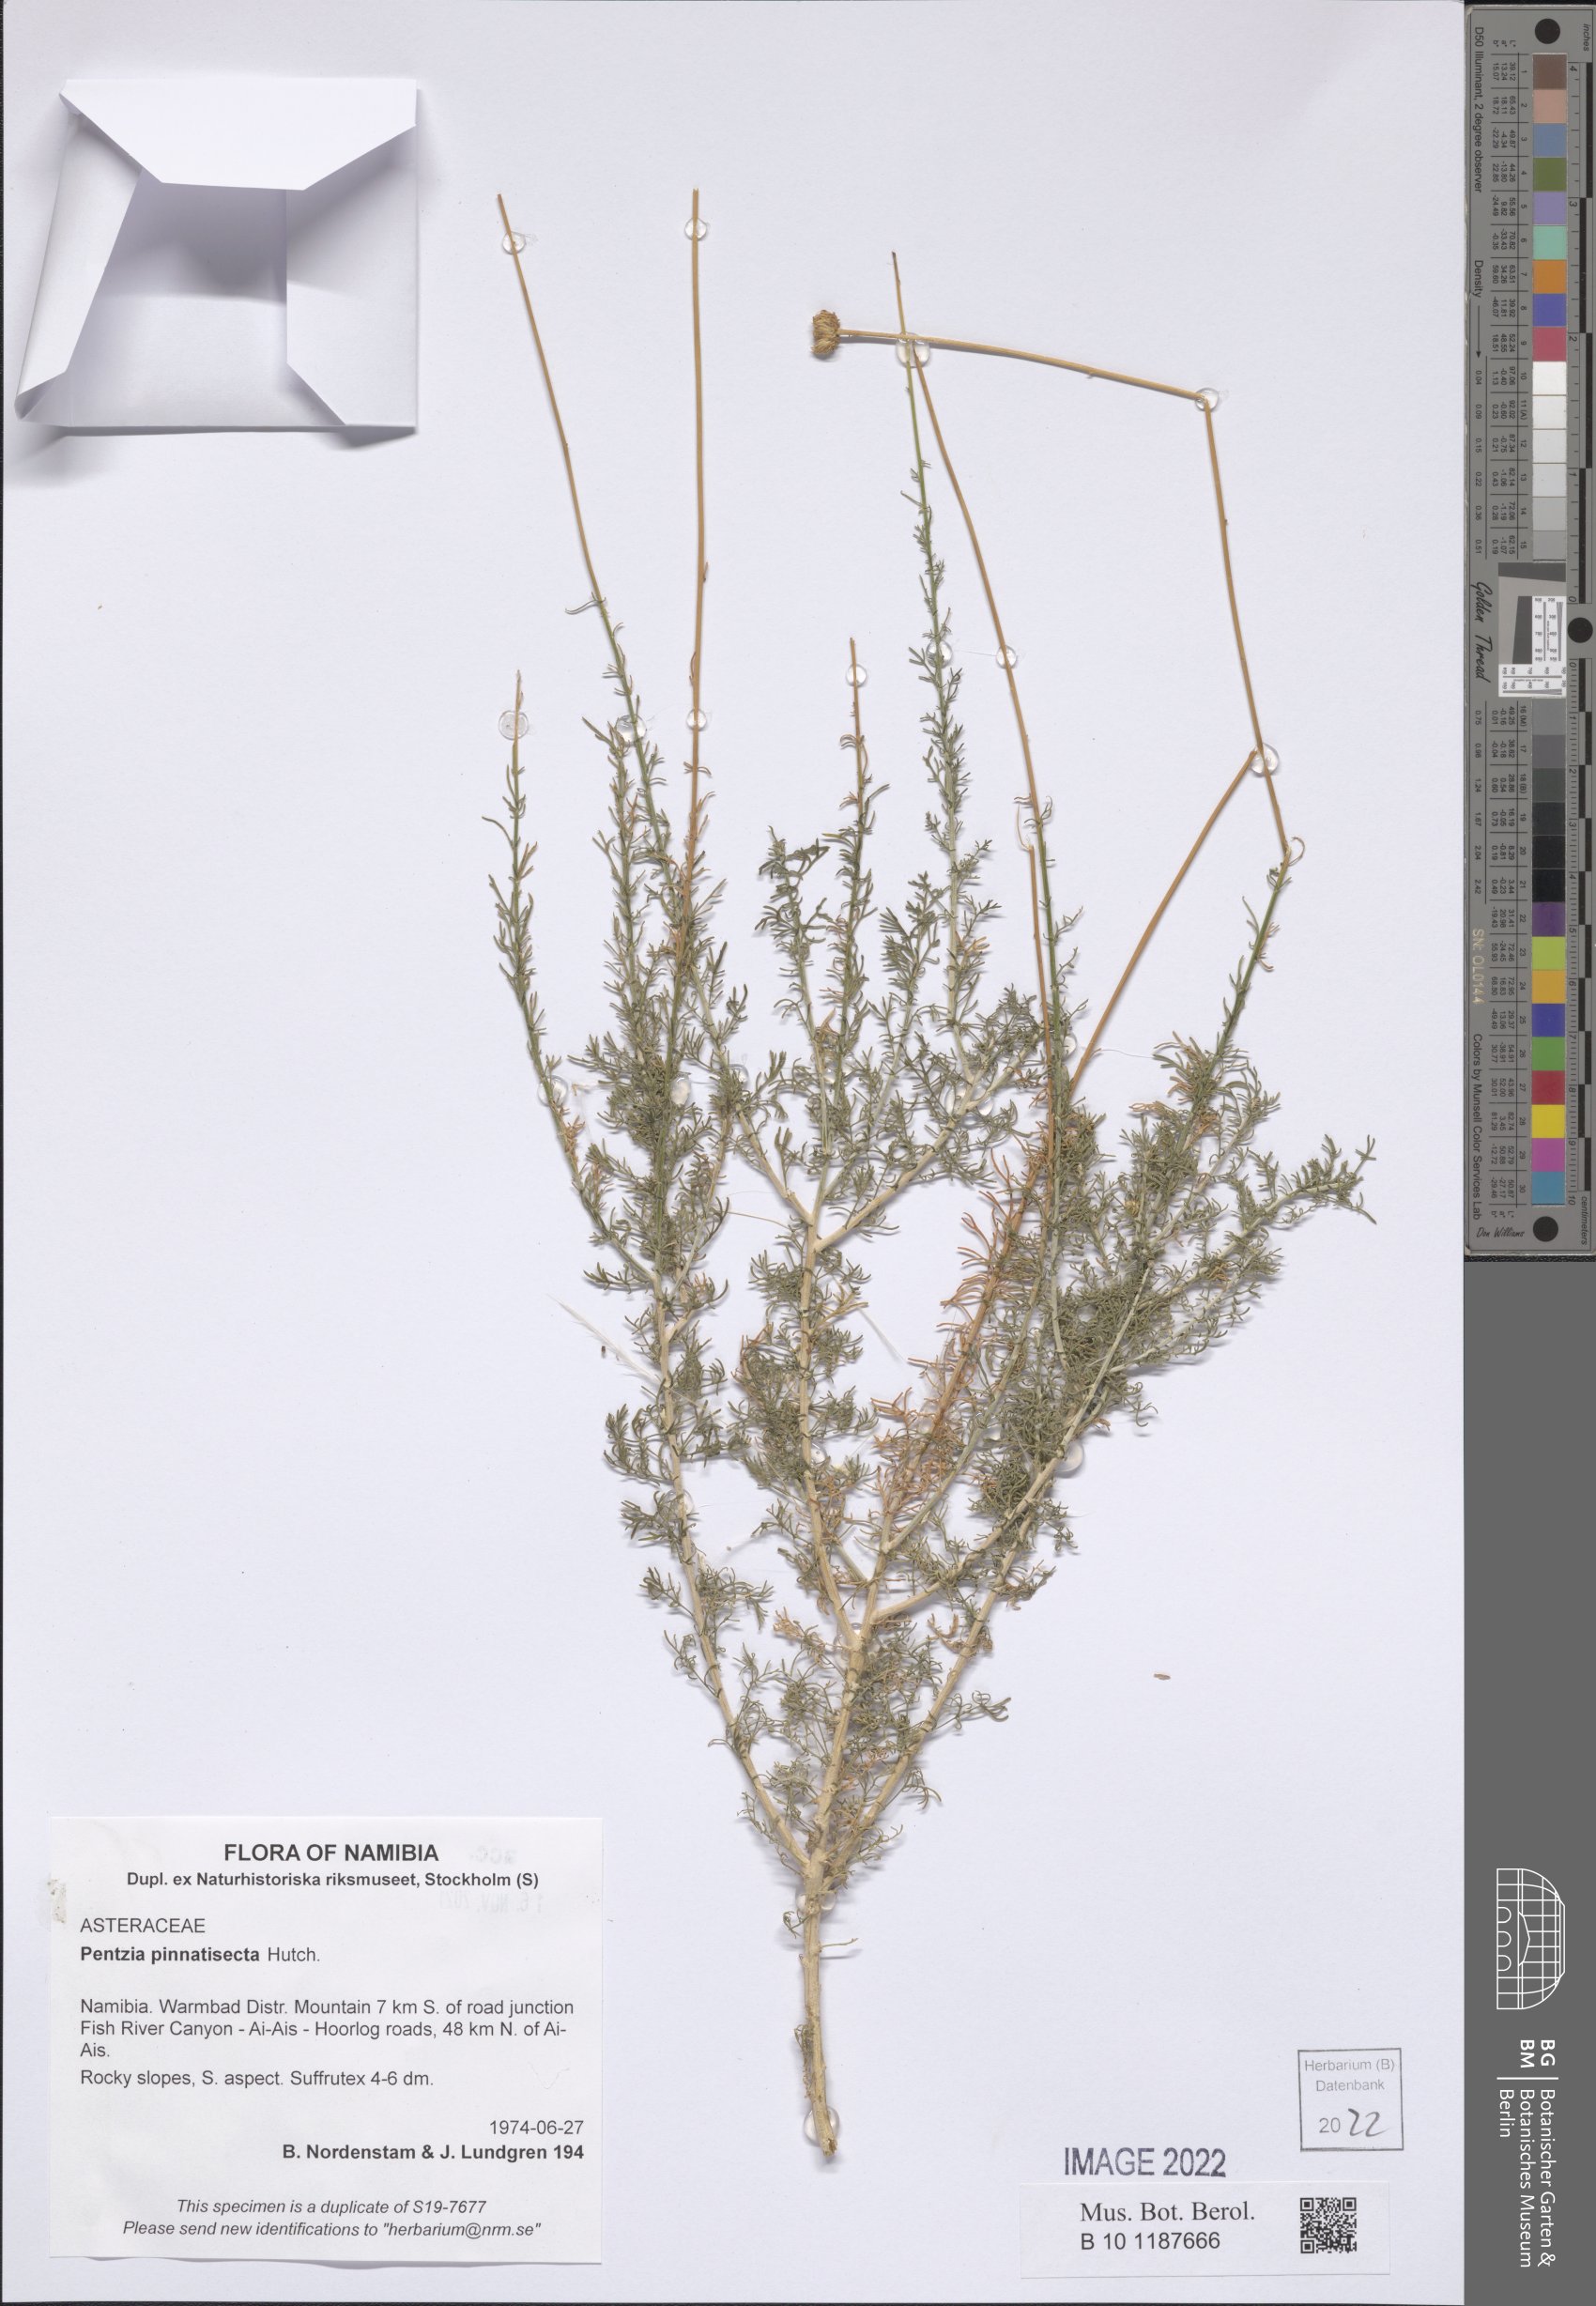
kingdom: Plantae
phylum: Tracheophyta
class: Magnoliopsida
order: Asterales
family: Asteraceae
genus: Pentzia
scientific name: Pentzia pinnatisecta
